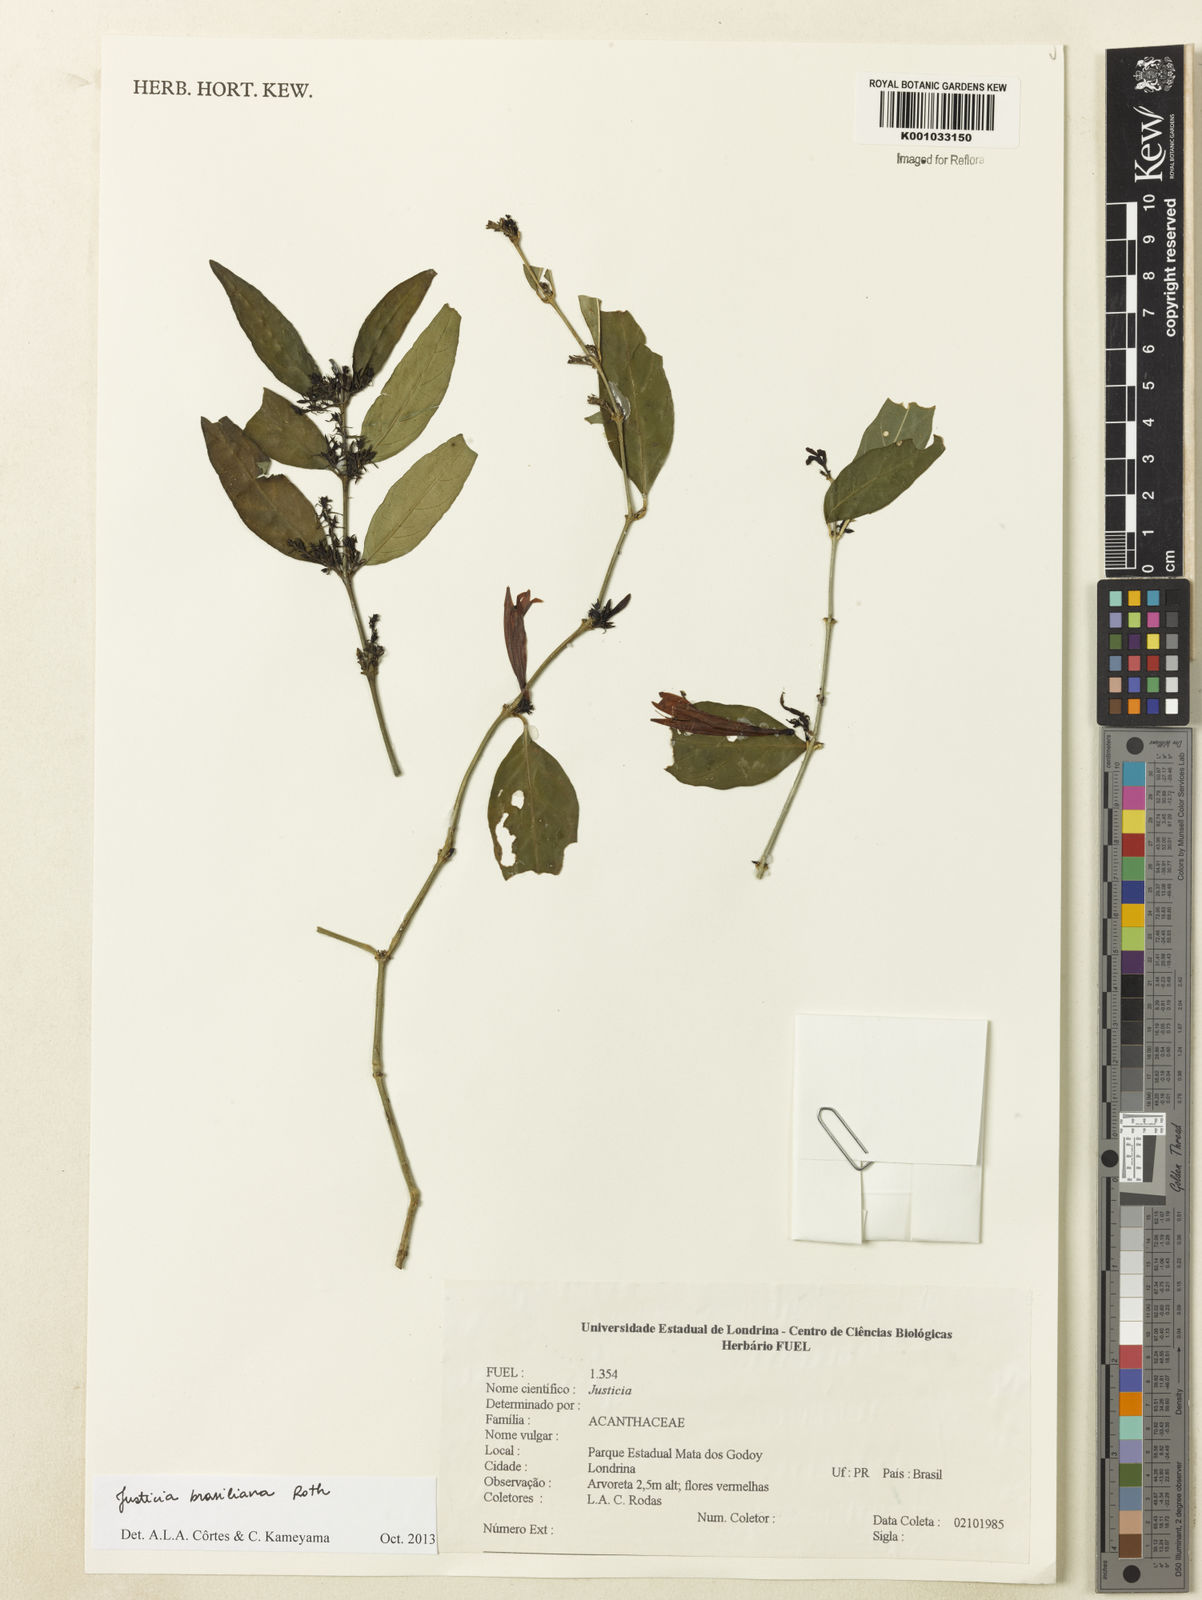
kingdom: Plantae
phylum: Tracheophyta
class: Magnoliopsida
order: Lamiales
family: Acanthaceae
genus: Justicia
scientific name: Justicia brasiliana
